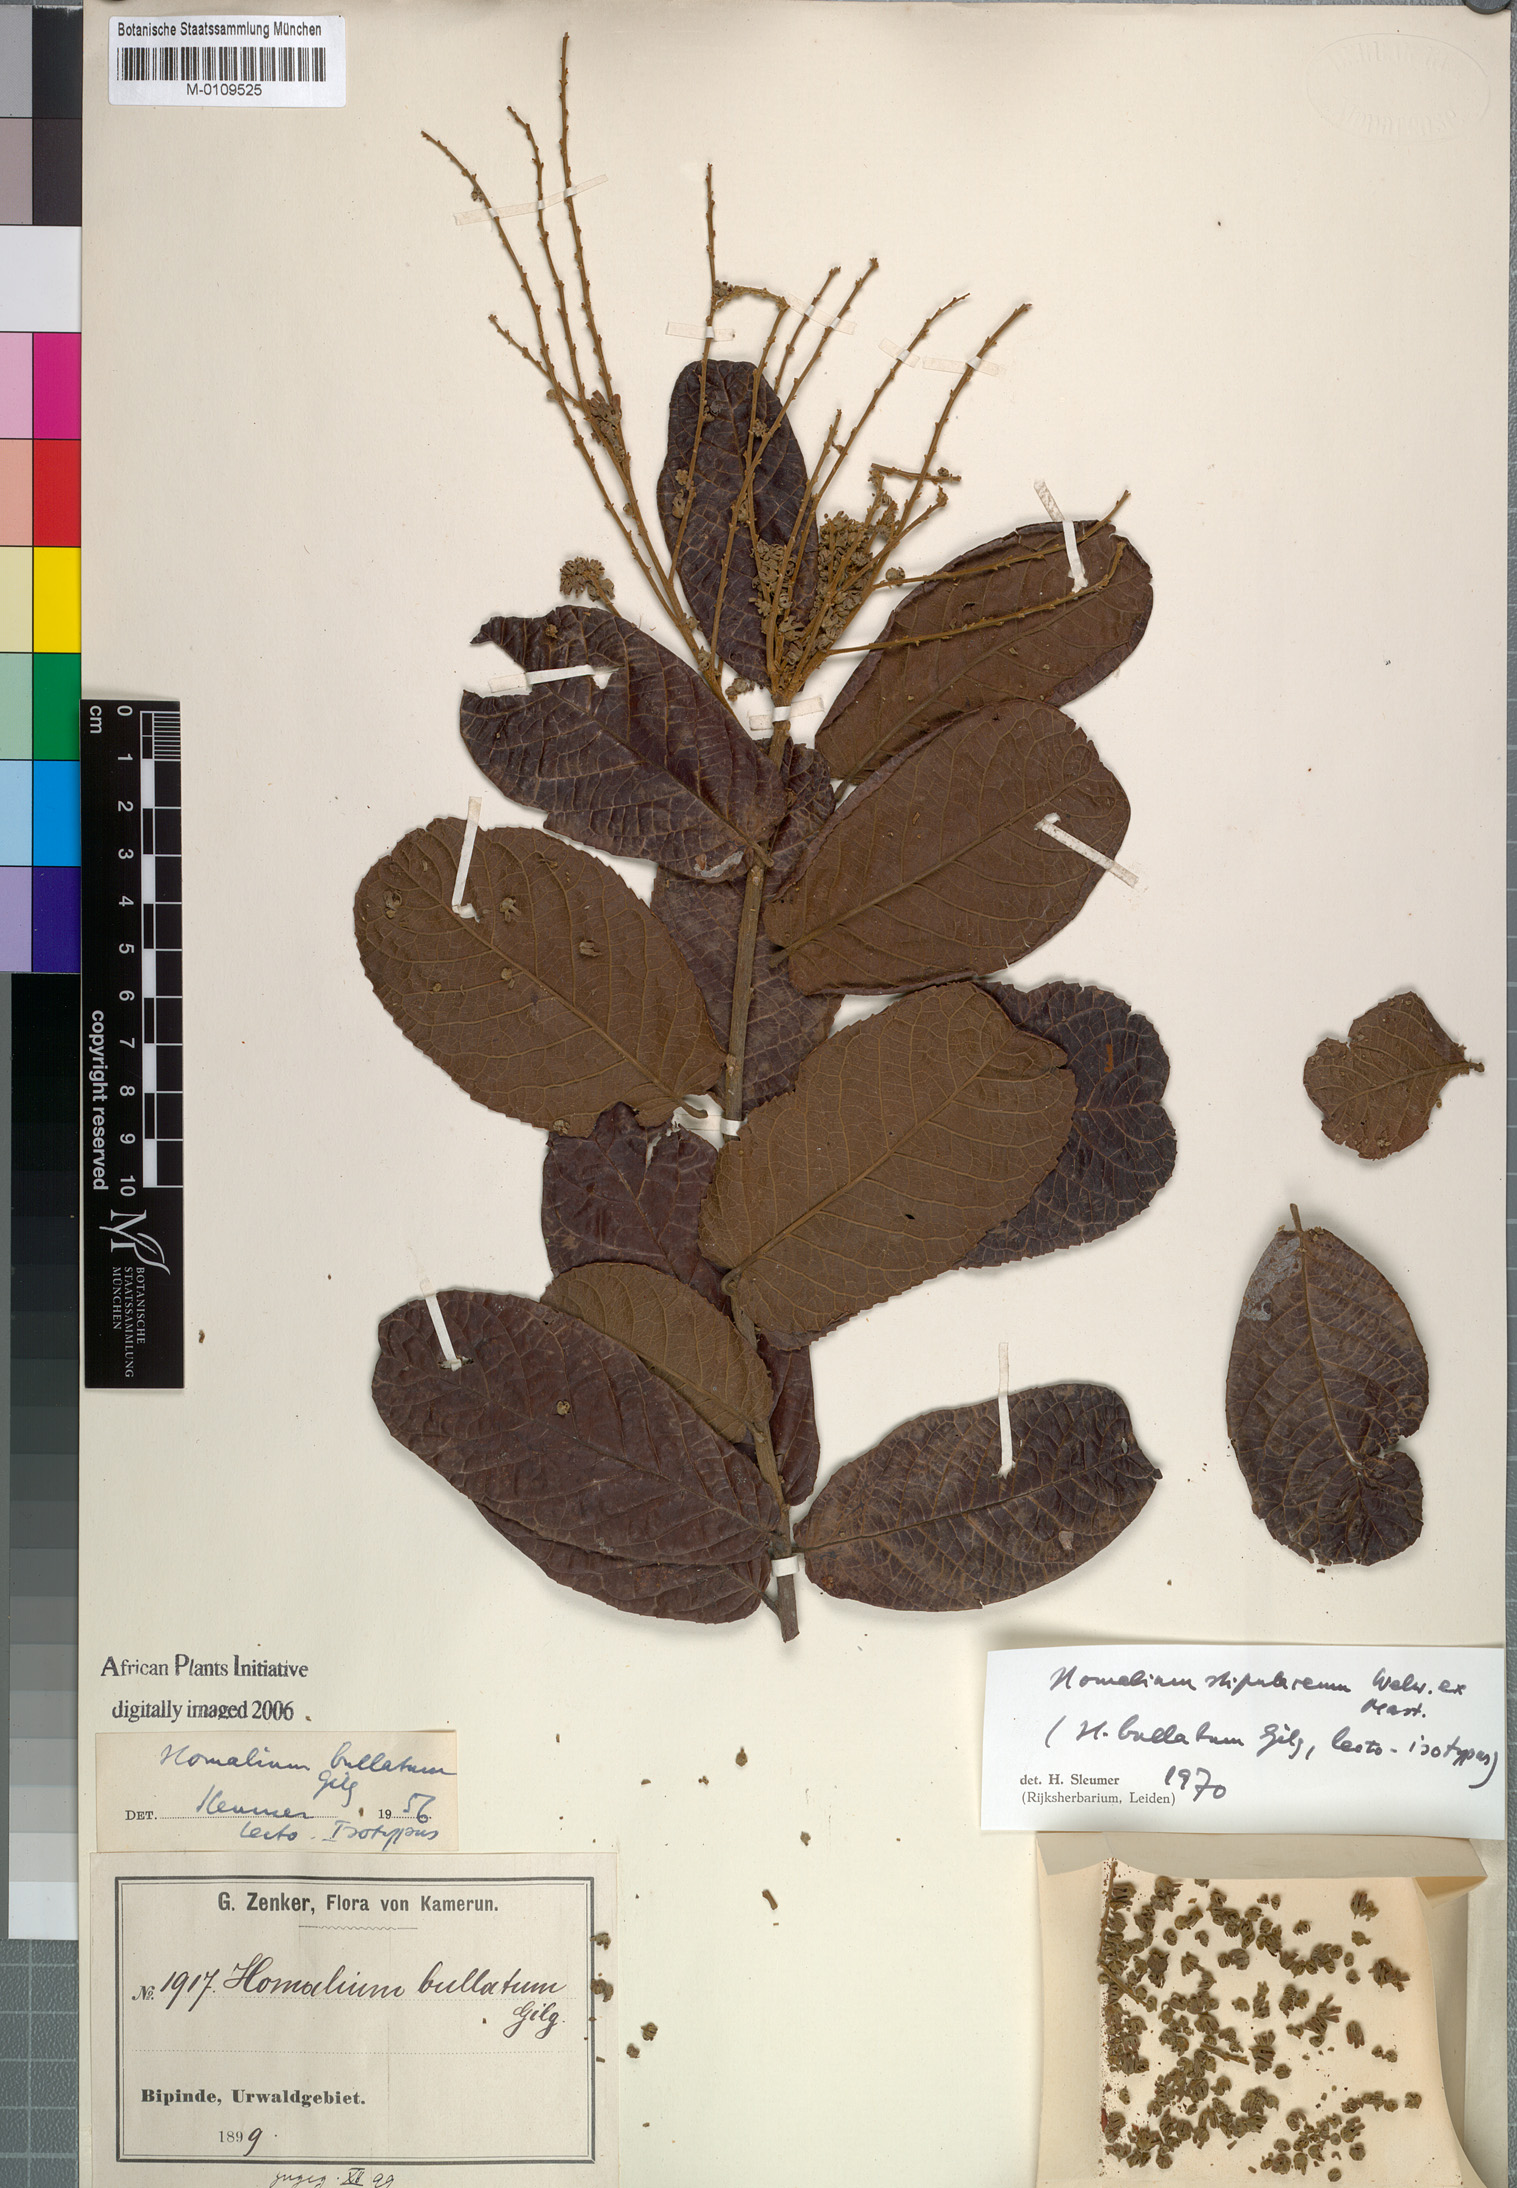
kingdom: Plantae
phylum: Tracheophyta
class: Magnoliopsida
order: Malpighiales
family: Salicaceae
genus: Homalium
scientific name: Homalium stipulaceum
